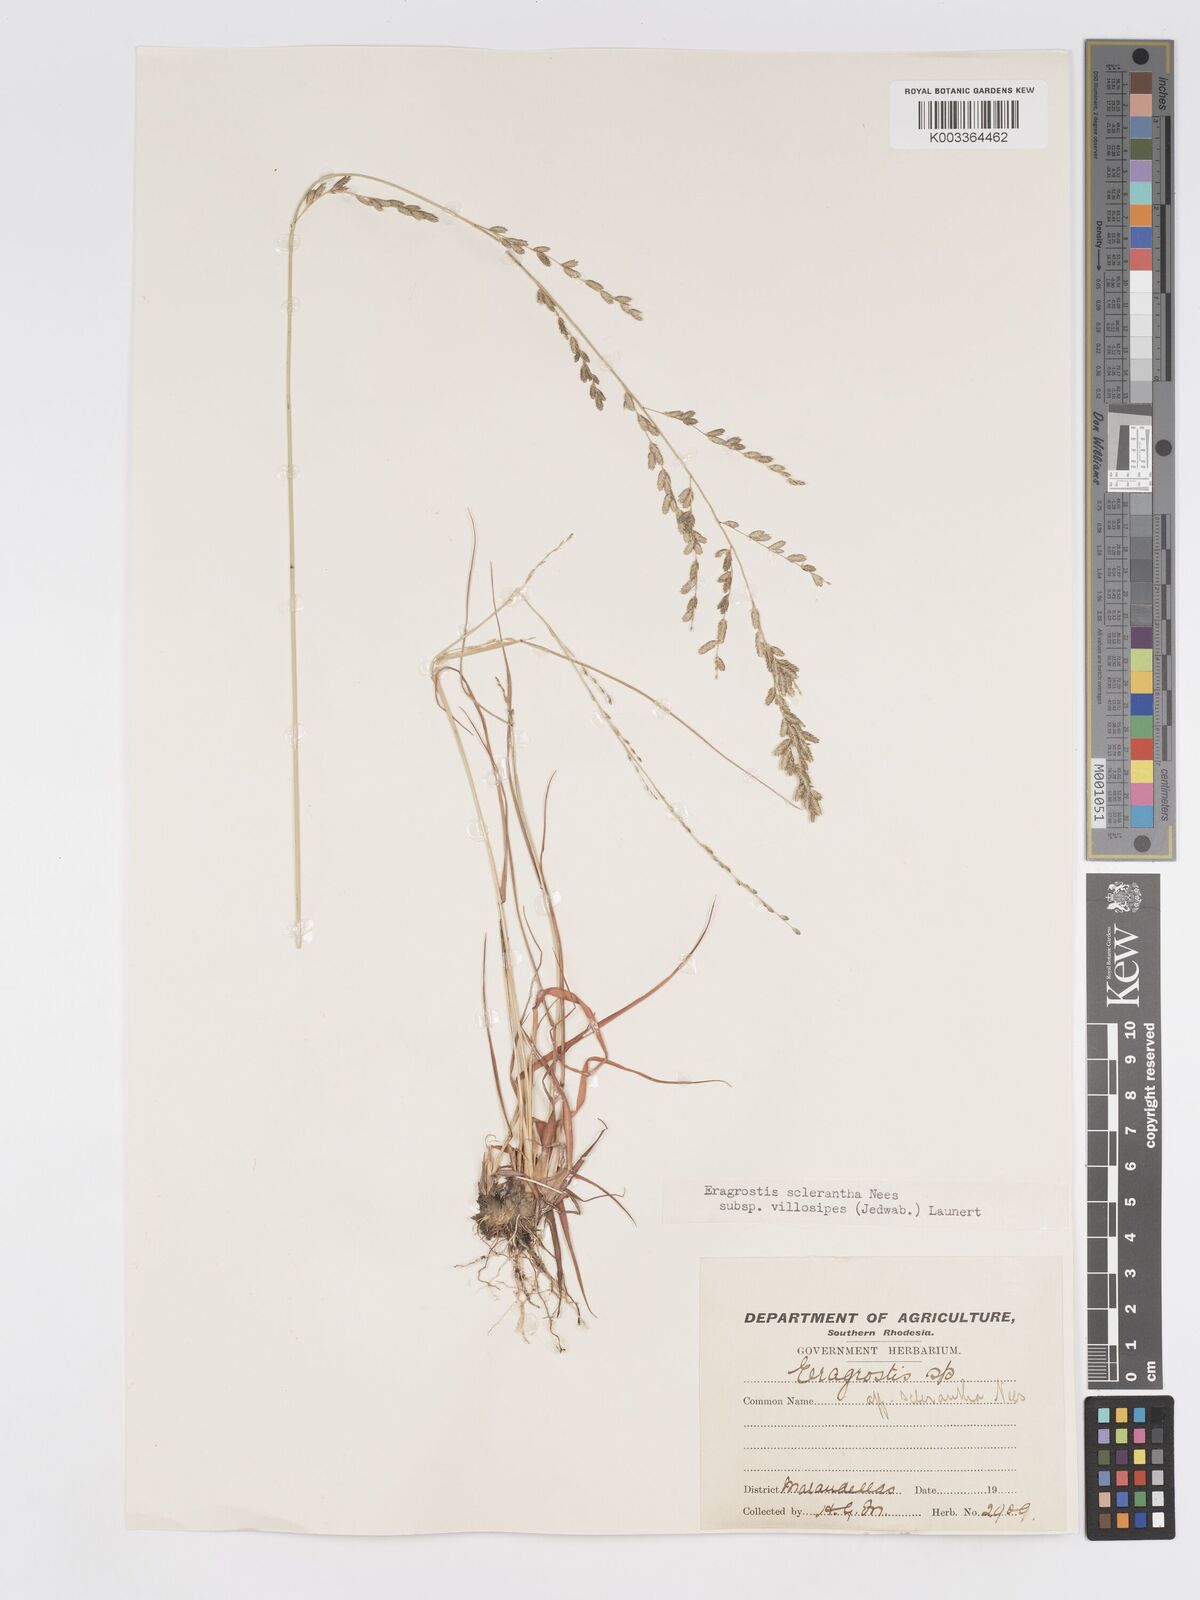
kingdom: Plantae
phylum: Tracheophyta
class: Liliopsida
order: Poales
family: Poaceae
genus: Eragrostis
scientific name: Eragrostis sclerantha
